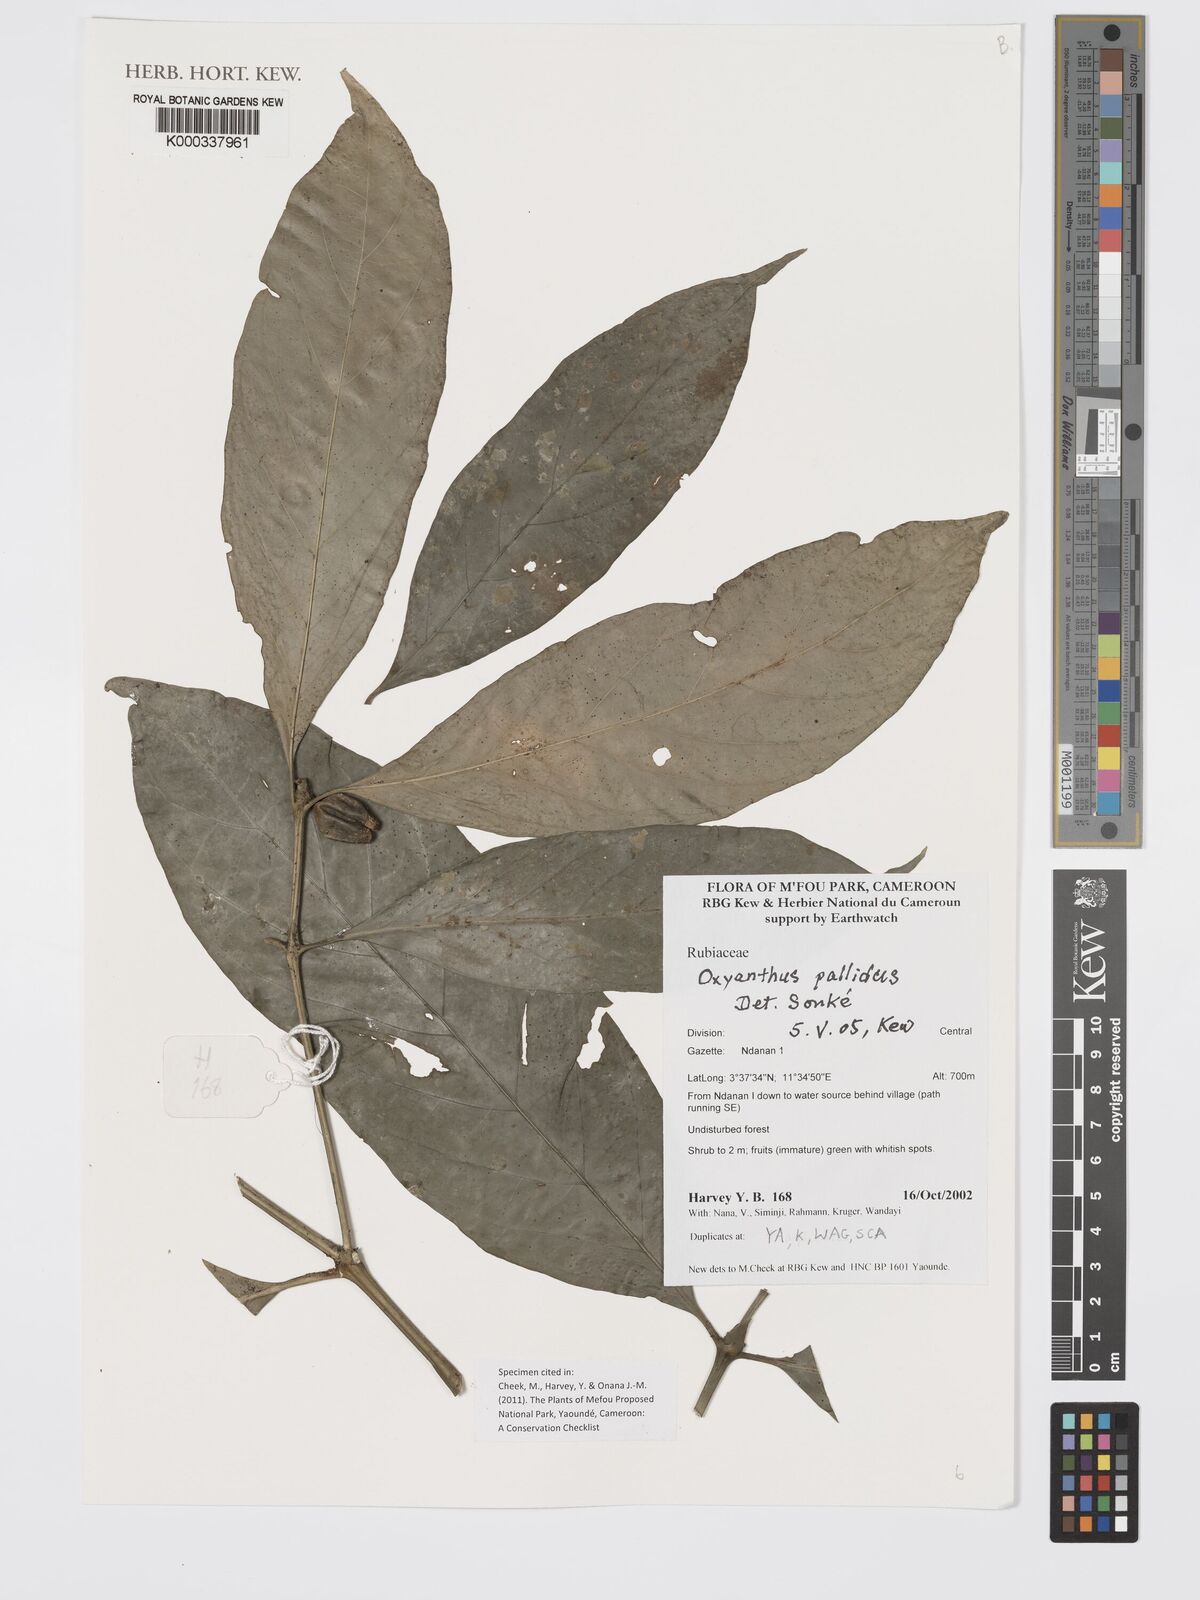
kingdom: Plantae
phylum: Tracheophyta
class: Magnoliopsida
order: Gentianales
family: Rubiaceae
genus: Oxyanthus
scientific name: Oxyanthus pallidus
